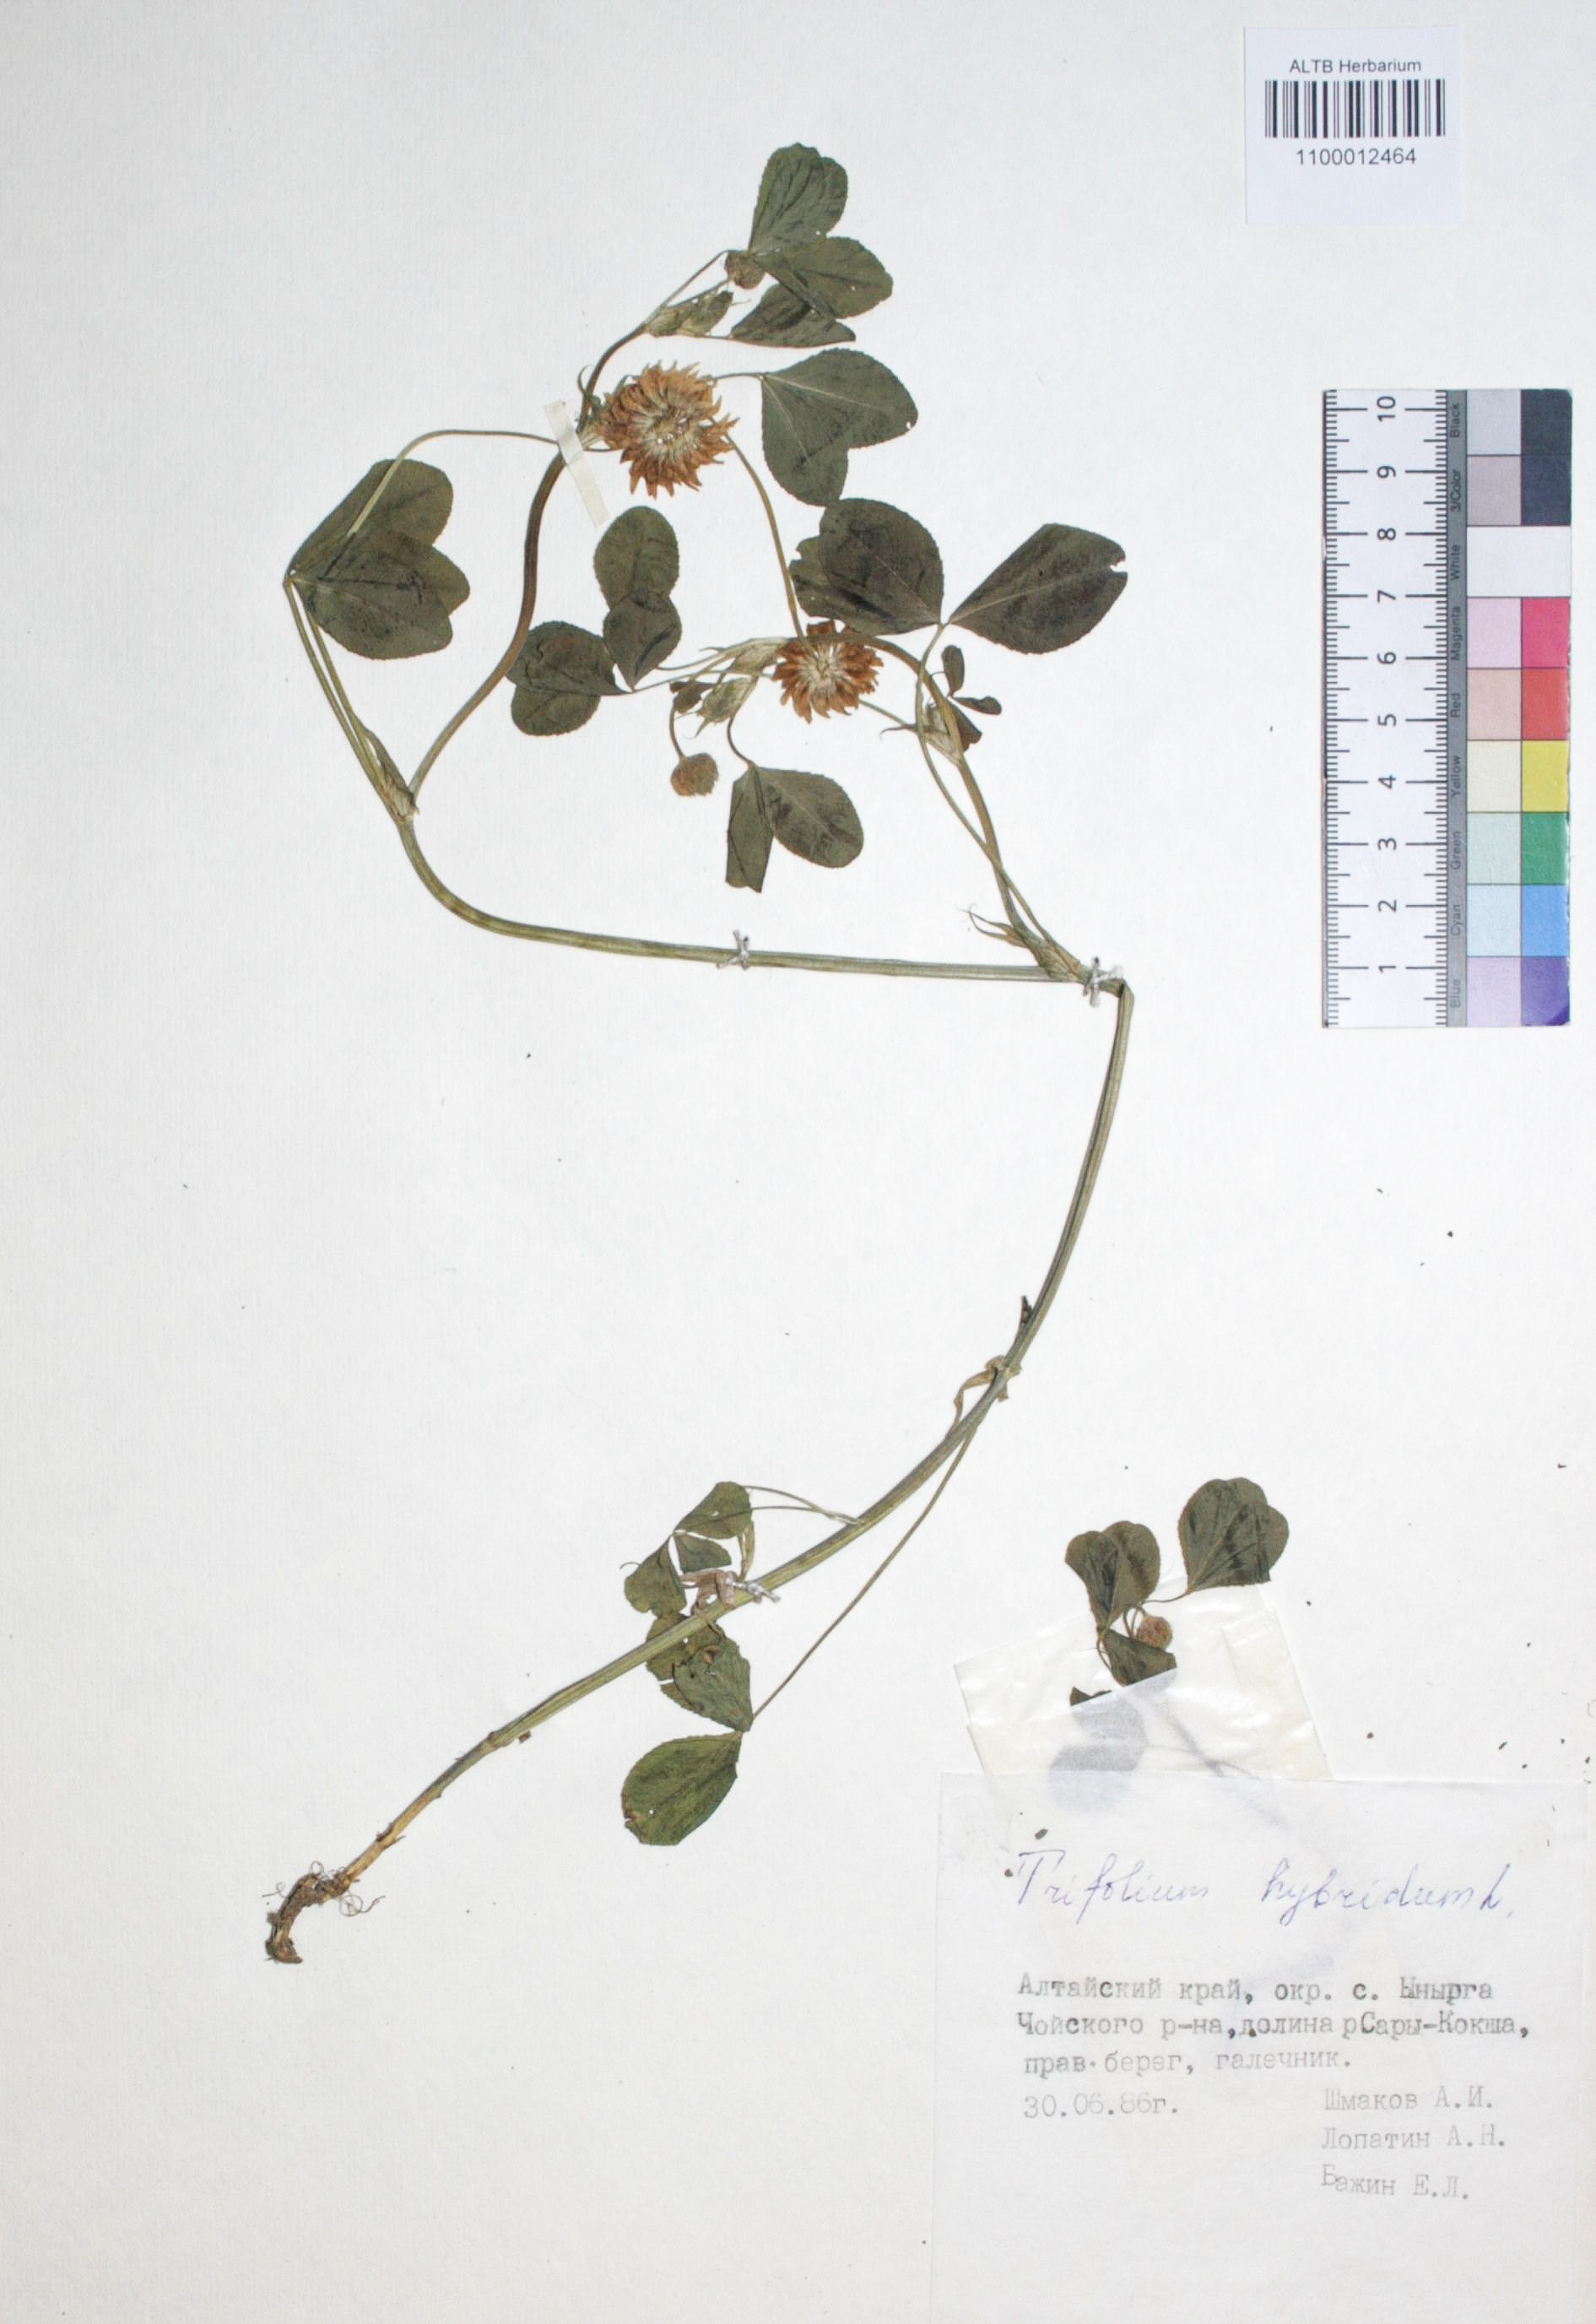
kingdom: Plantae
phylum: Tracheophyta
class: Magnoliopsida
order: Fabales
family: Fabaceae
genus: Trifolium
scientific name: Trifolium hybridum
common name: Alsike clover
